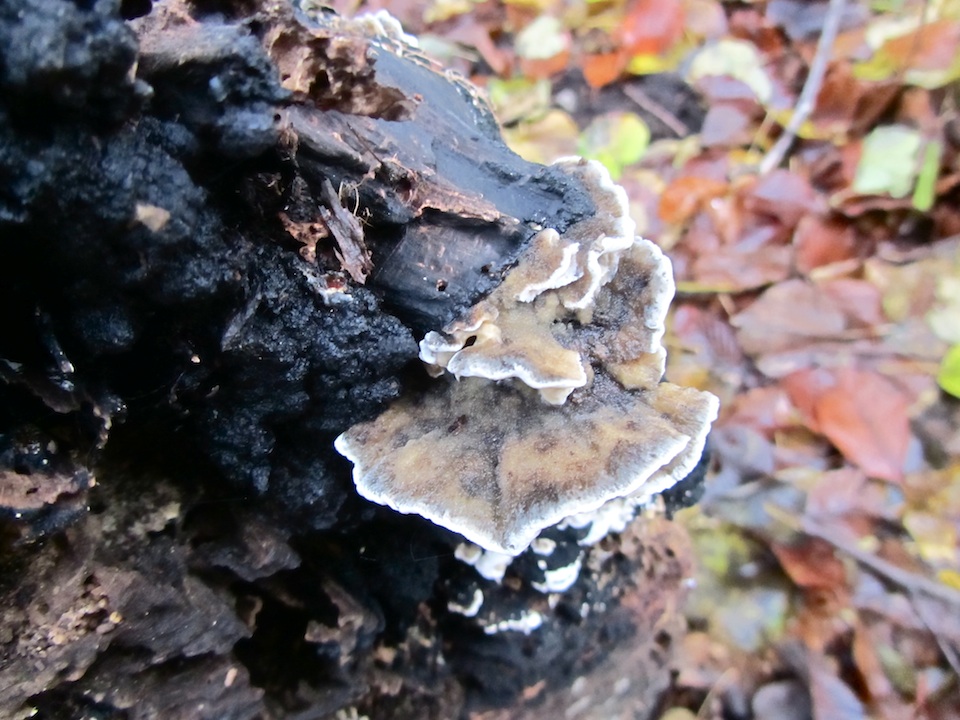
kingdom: Fungi
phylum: Basidiomycota
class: Agaricomycetes
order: Polyporales
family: Phanerochaetaceae
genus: Bjerkandera
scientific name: Bjerkandera fumosa
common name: grågul sodporesvamp
